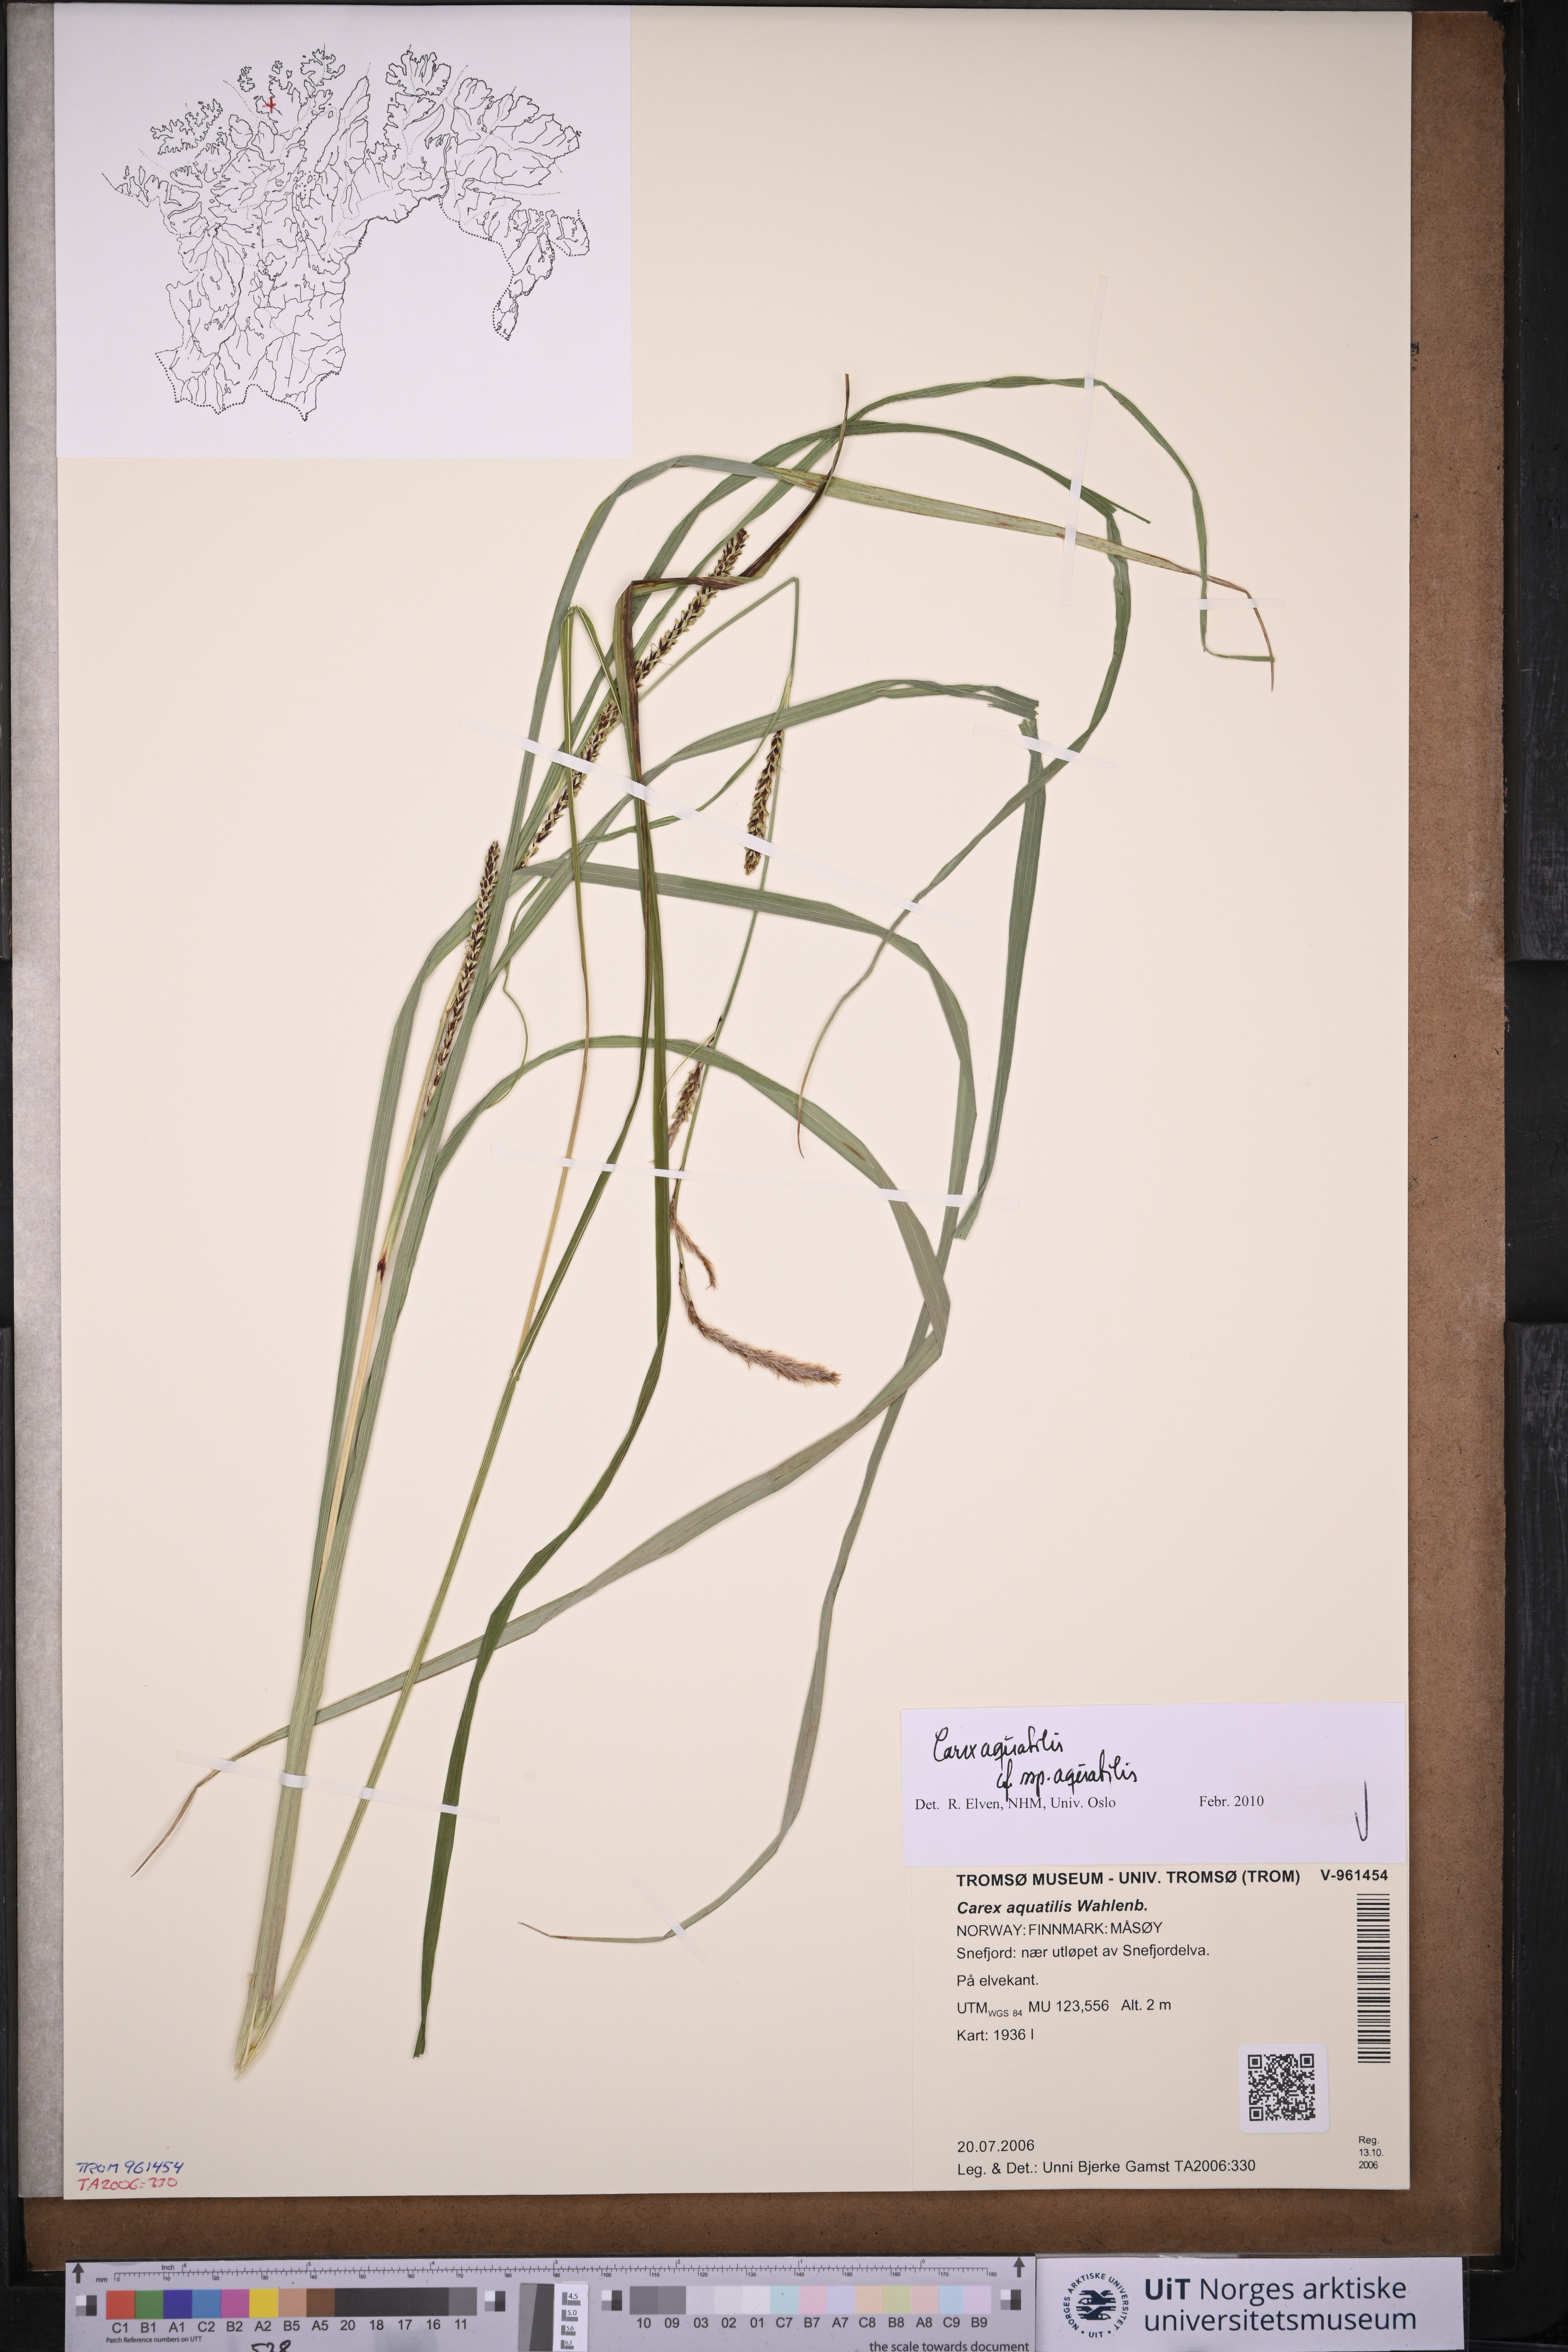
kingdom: Plantae
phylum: Tracheophyta
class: Liliopsida
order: Poales
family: Cyperaceae
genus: Carex
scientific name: Carex aquatilis
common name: Water sedge
